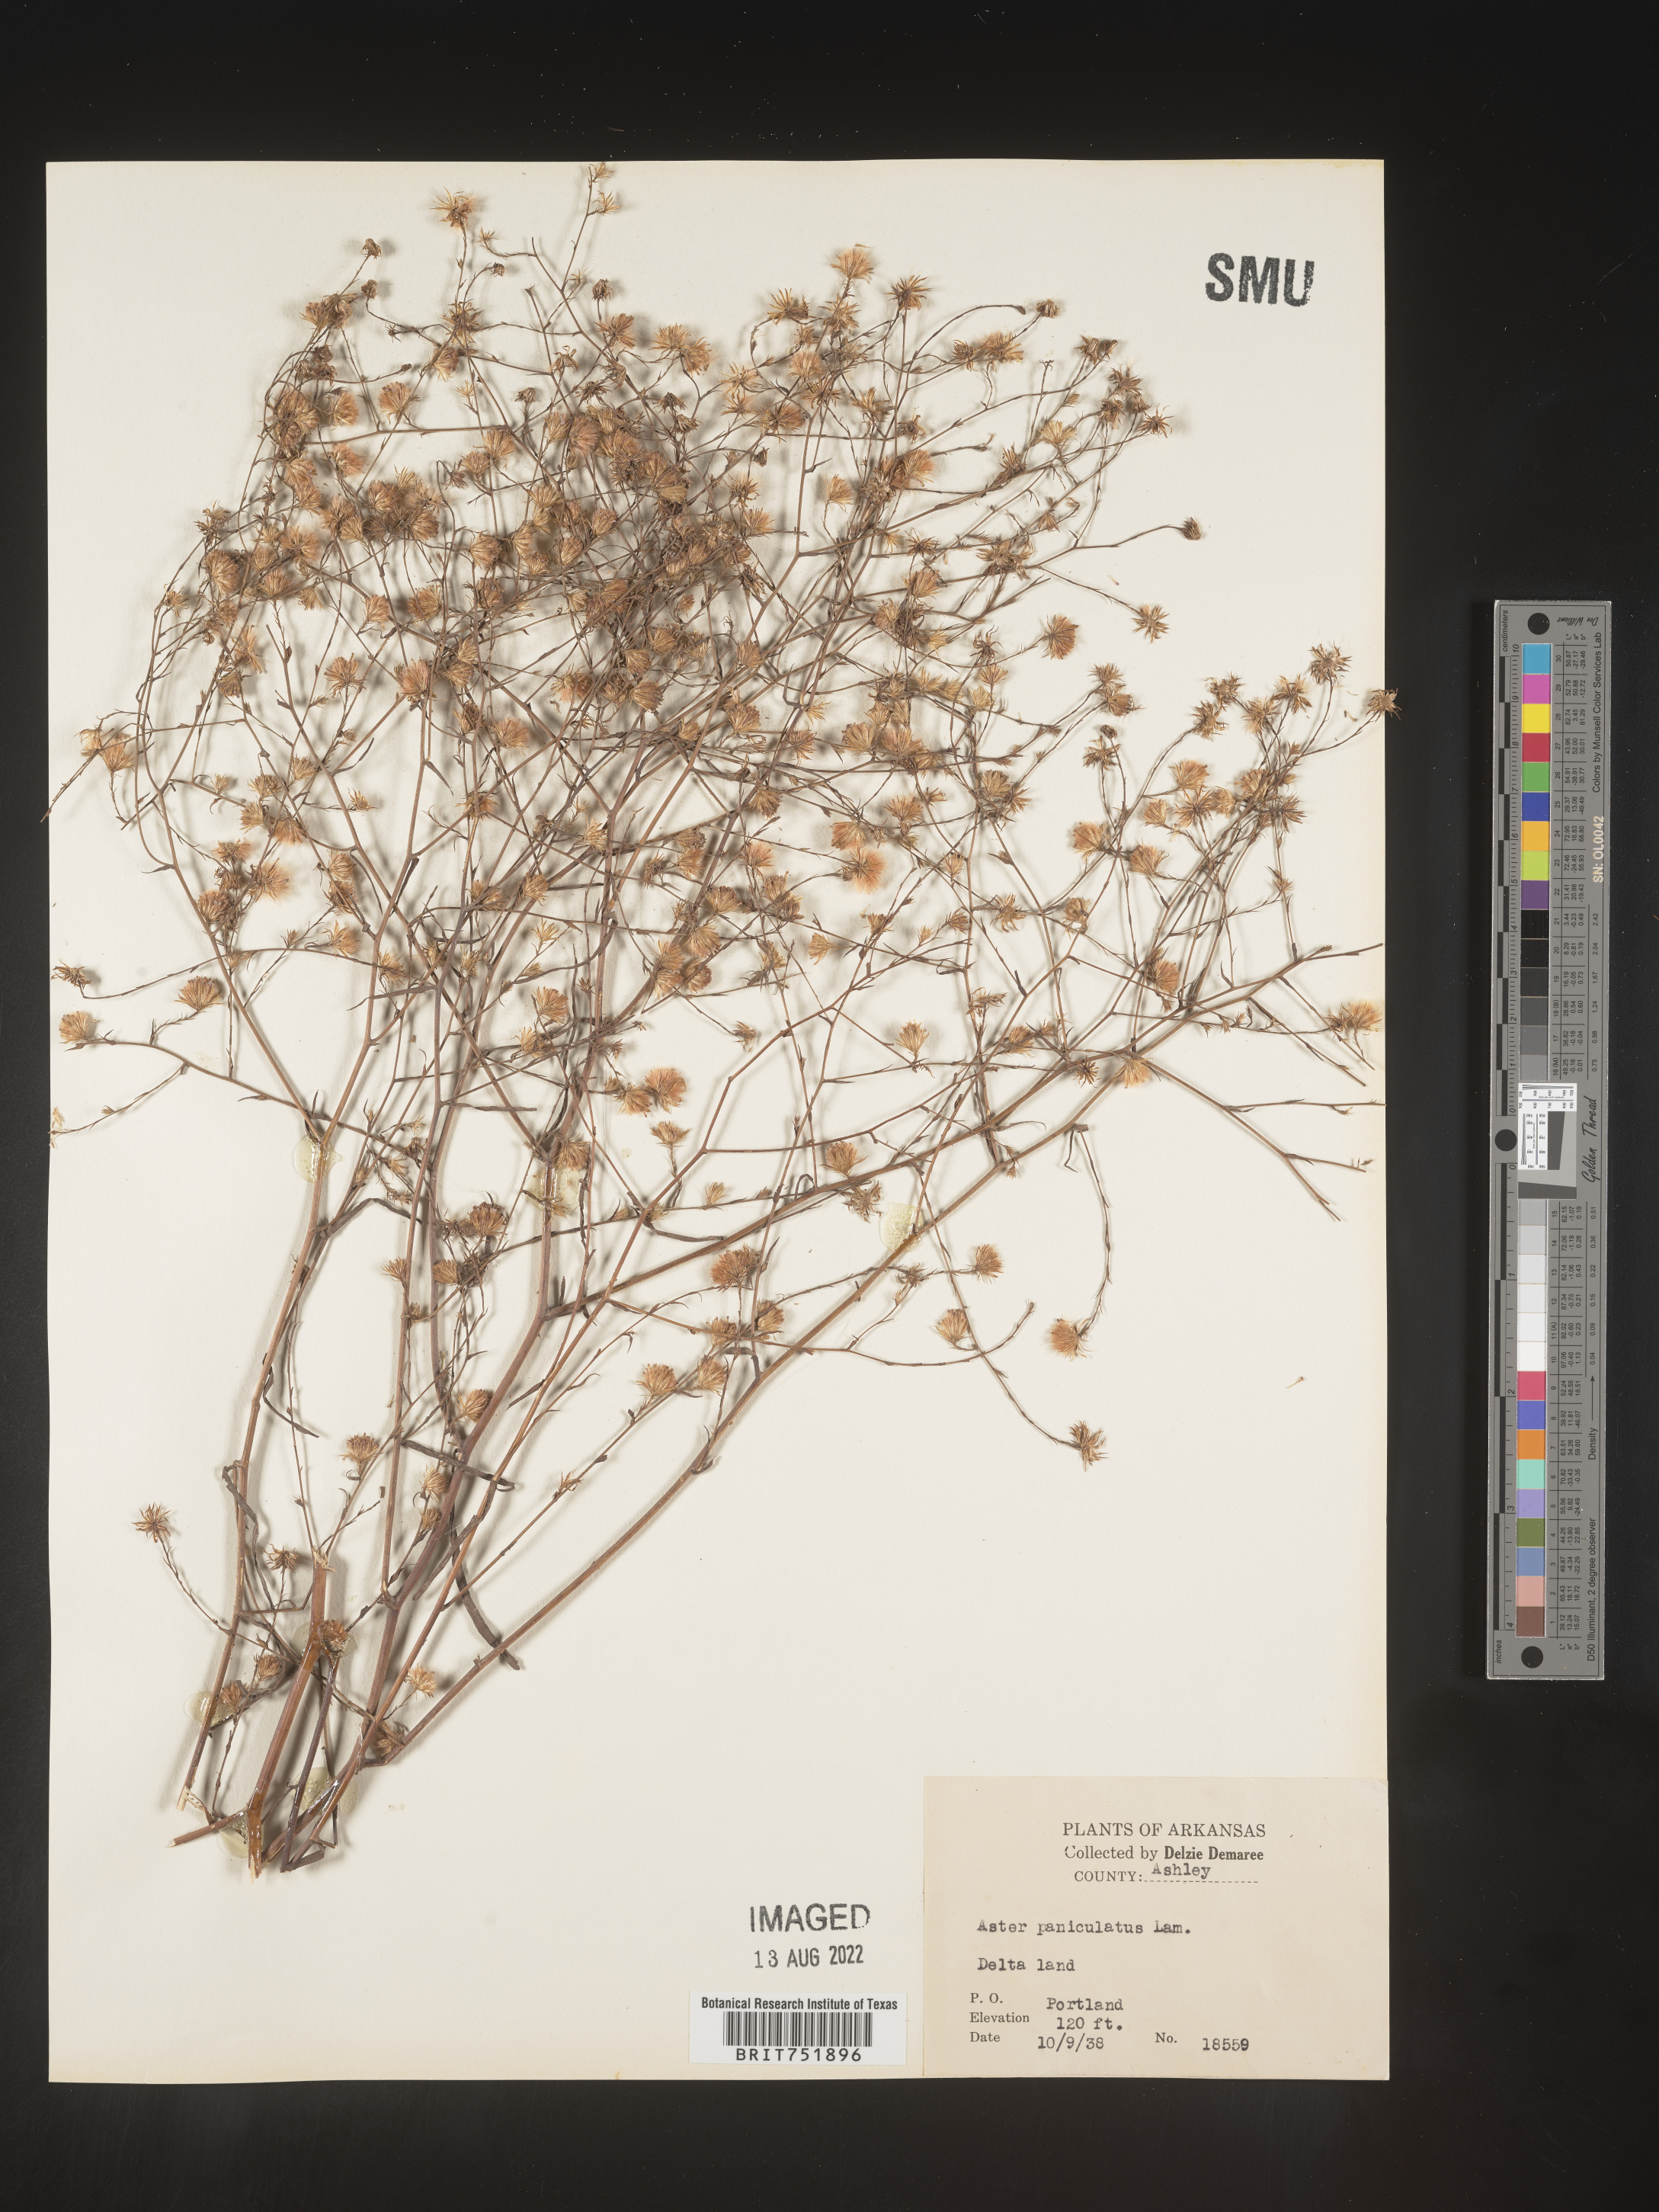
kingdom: Plantae
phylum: Tracheophyta
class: Magnoliopsida
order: Asterales
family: Asteraceae
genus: Symphyotrichum
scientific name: Symphyotrichum divaricatum
